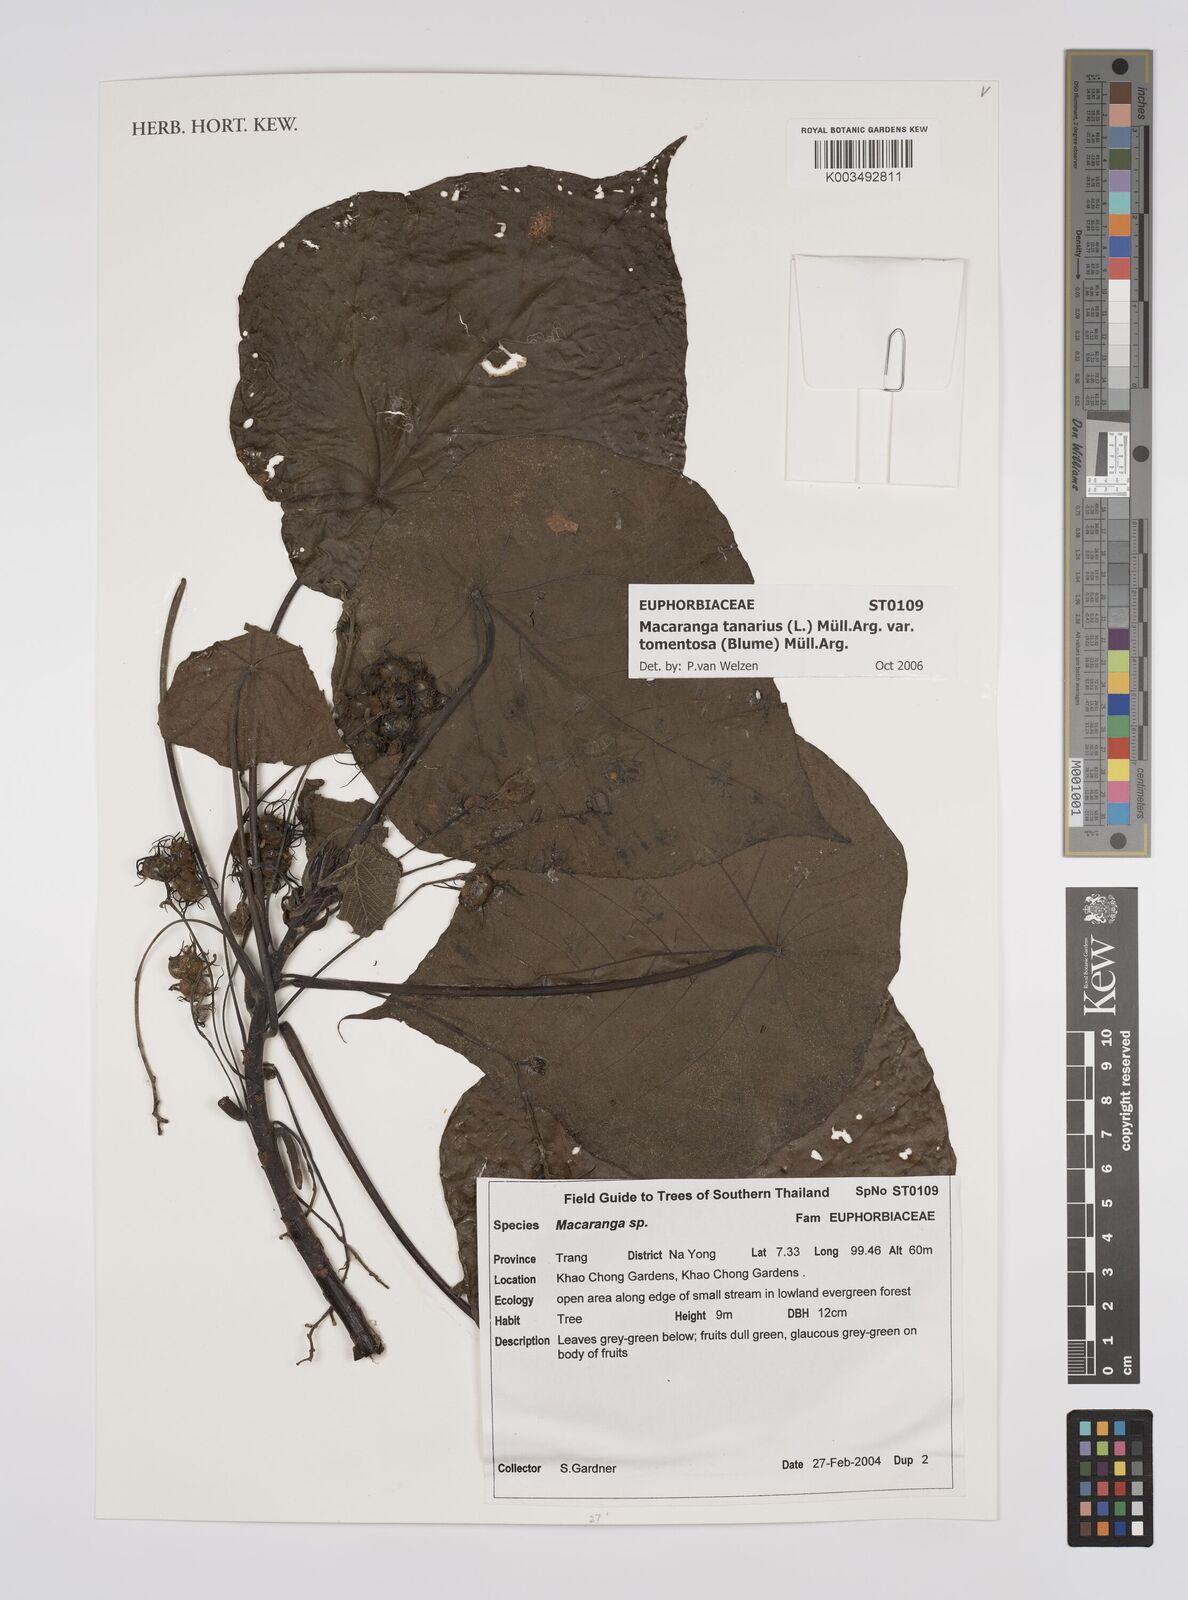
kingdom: Plantae
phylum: Tracheophyta
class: Magnoliopsida
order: Malpighiales
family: Euphorbiaceae
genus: Macaranga
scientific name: Macaranga tanarius
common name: Parasol leaf tree
